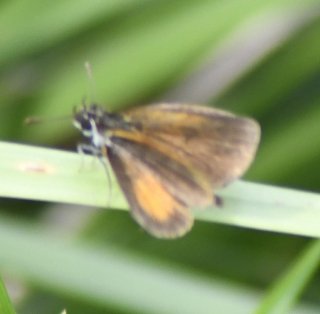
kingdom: Animalia
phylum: Arthropoda
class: Insecta
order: Lepidoptera
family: Hesperiidae
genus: Ancyloxypha
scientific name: Ancyloxypha numitor
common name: Least Skipper
